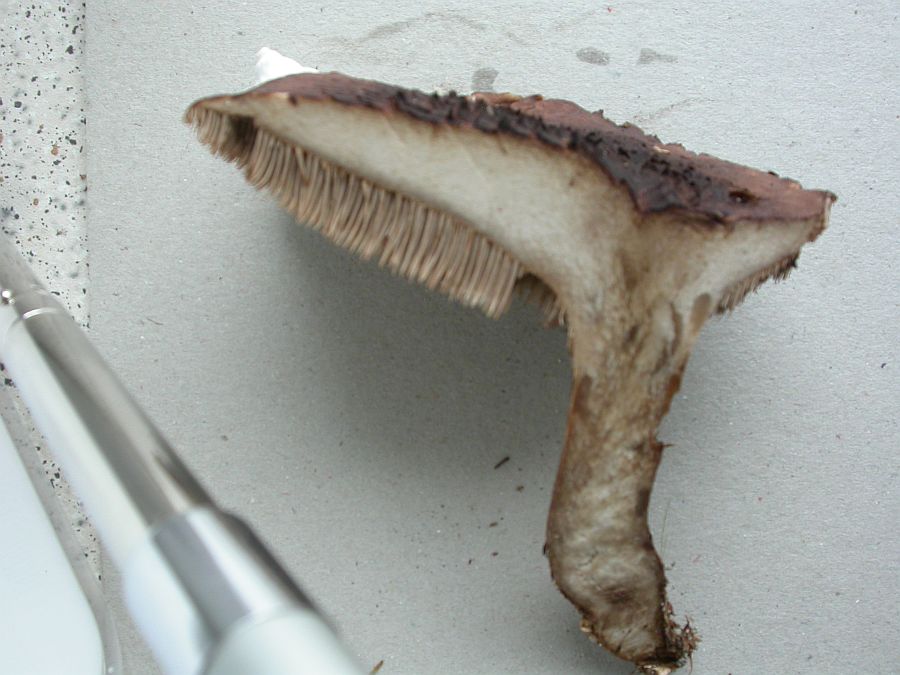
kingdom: Fungi
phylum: Basidiomycota
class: Agaricomycetes
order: Thelephorales
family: Bankeraceae
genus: Sarcodon
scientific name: Sarcodon squamosus
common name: småskællet kødpigsvamp
